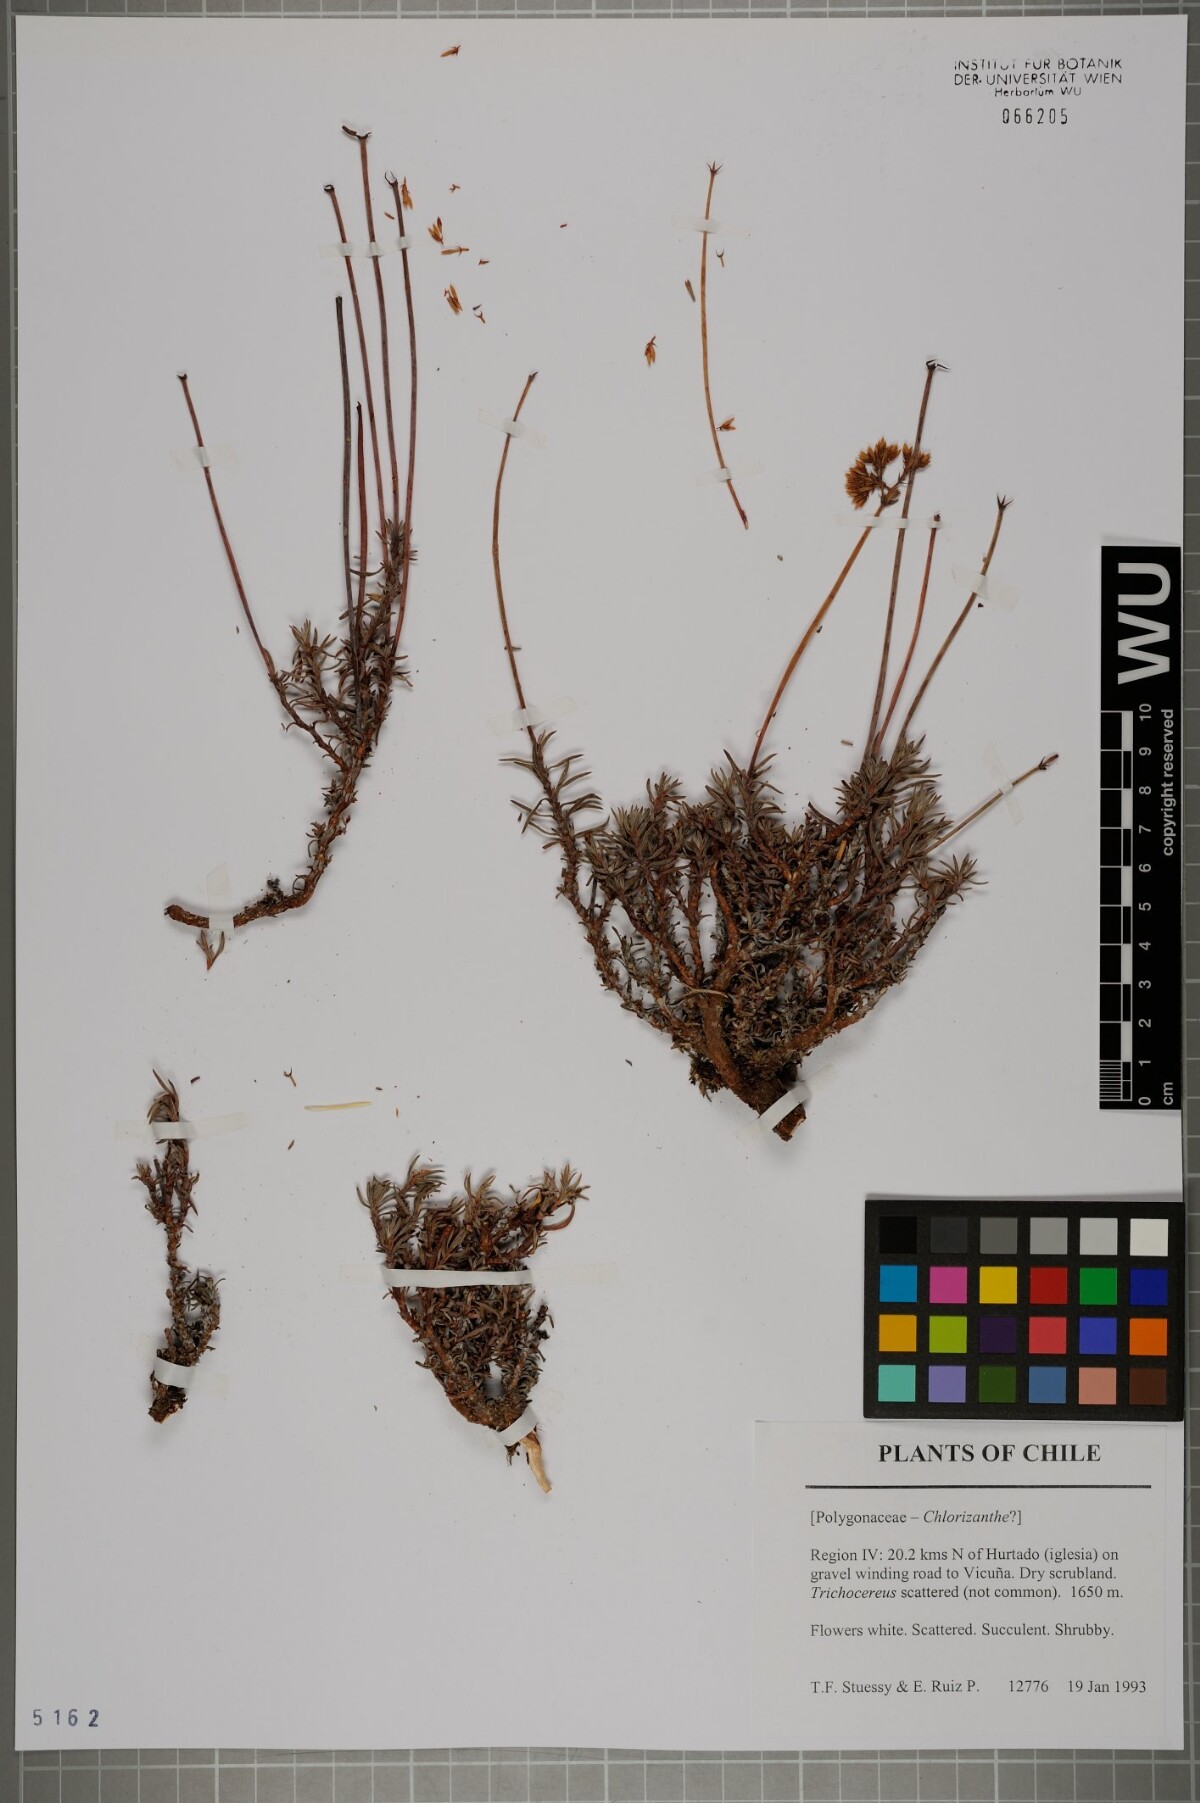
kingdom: Plantae
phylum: Tracheophyta
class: Magnoliopsida
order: Caryophyllales
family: Polygonaceae
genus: Chorizanthe
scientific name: Chorizanthe
